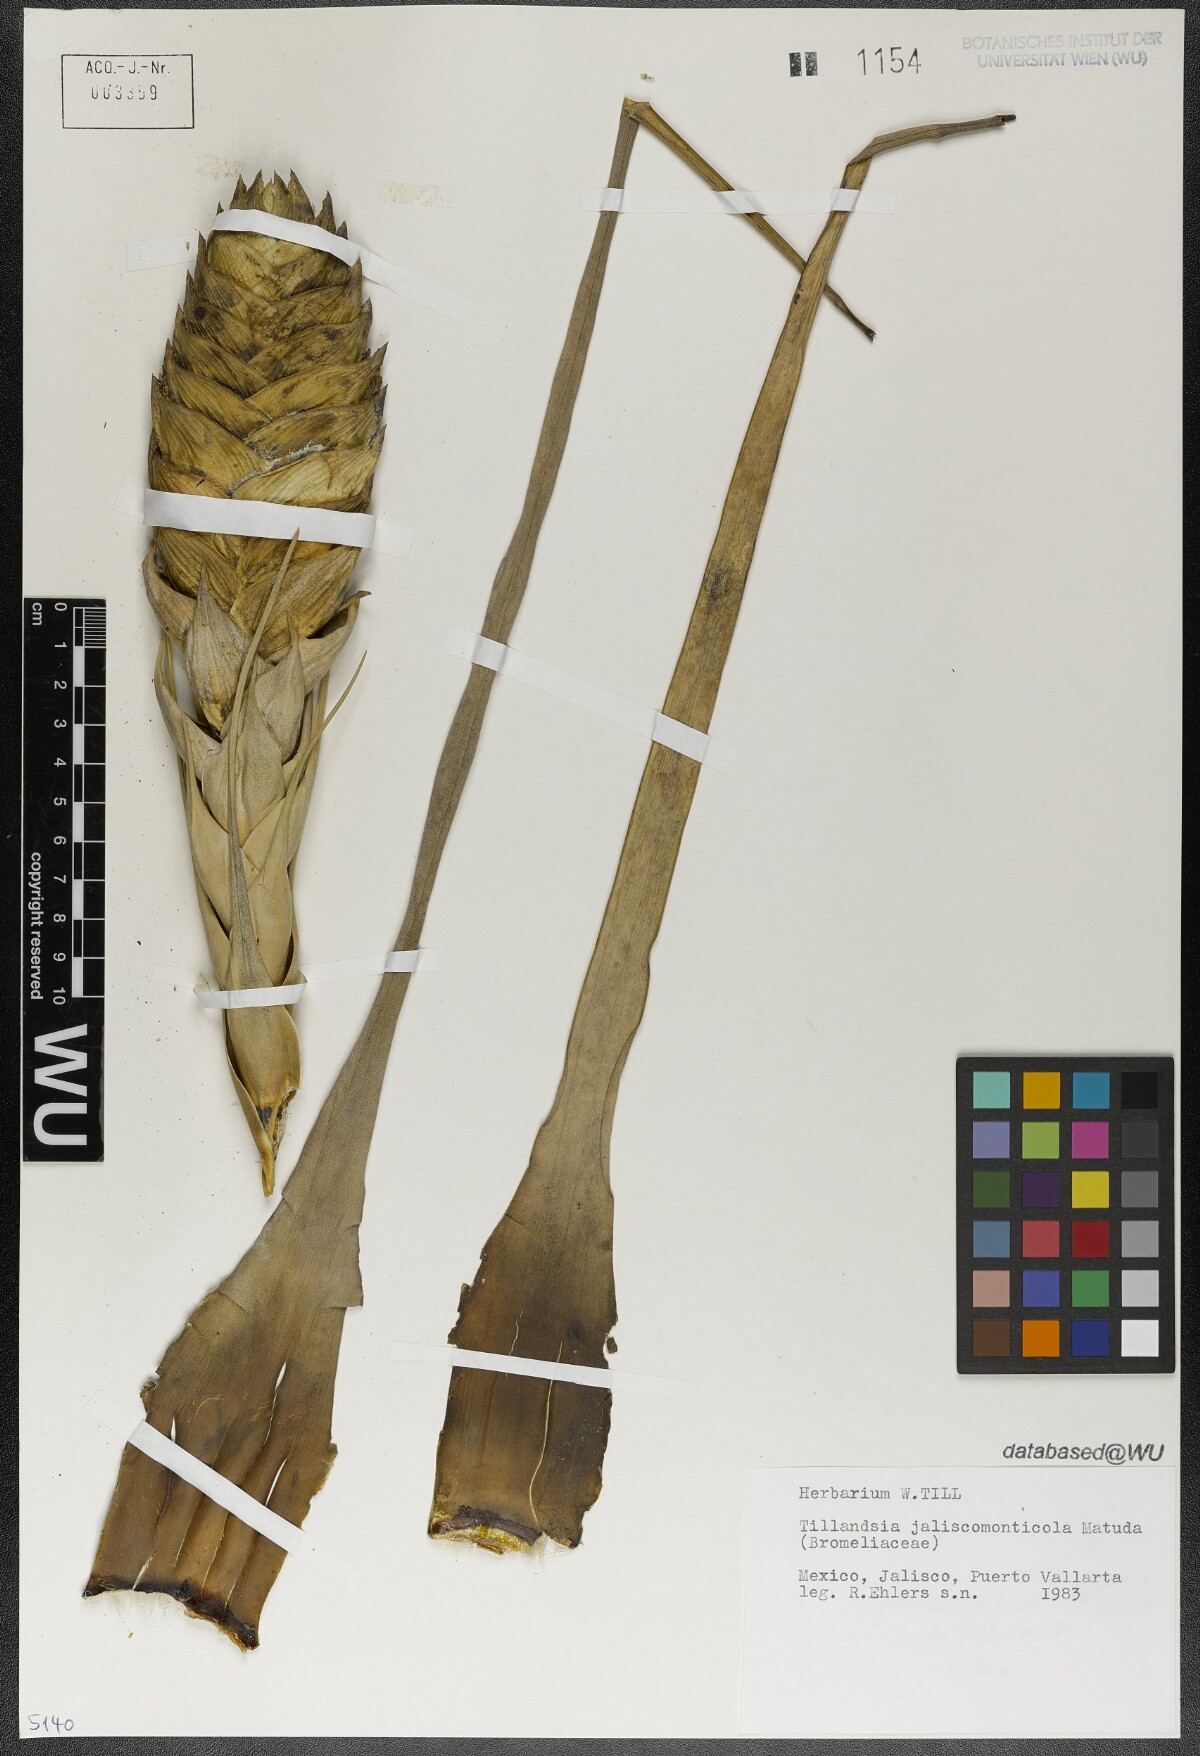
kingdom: Plantae
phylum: Tracheophyta
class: Liliopsida
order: Poales
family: Bromeliaceae
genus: Tillandsia
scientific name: Tillandsia compressa
